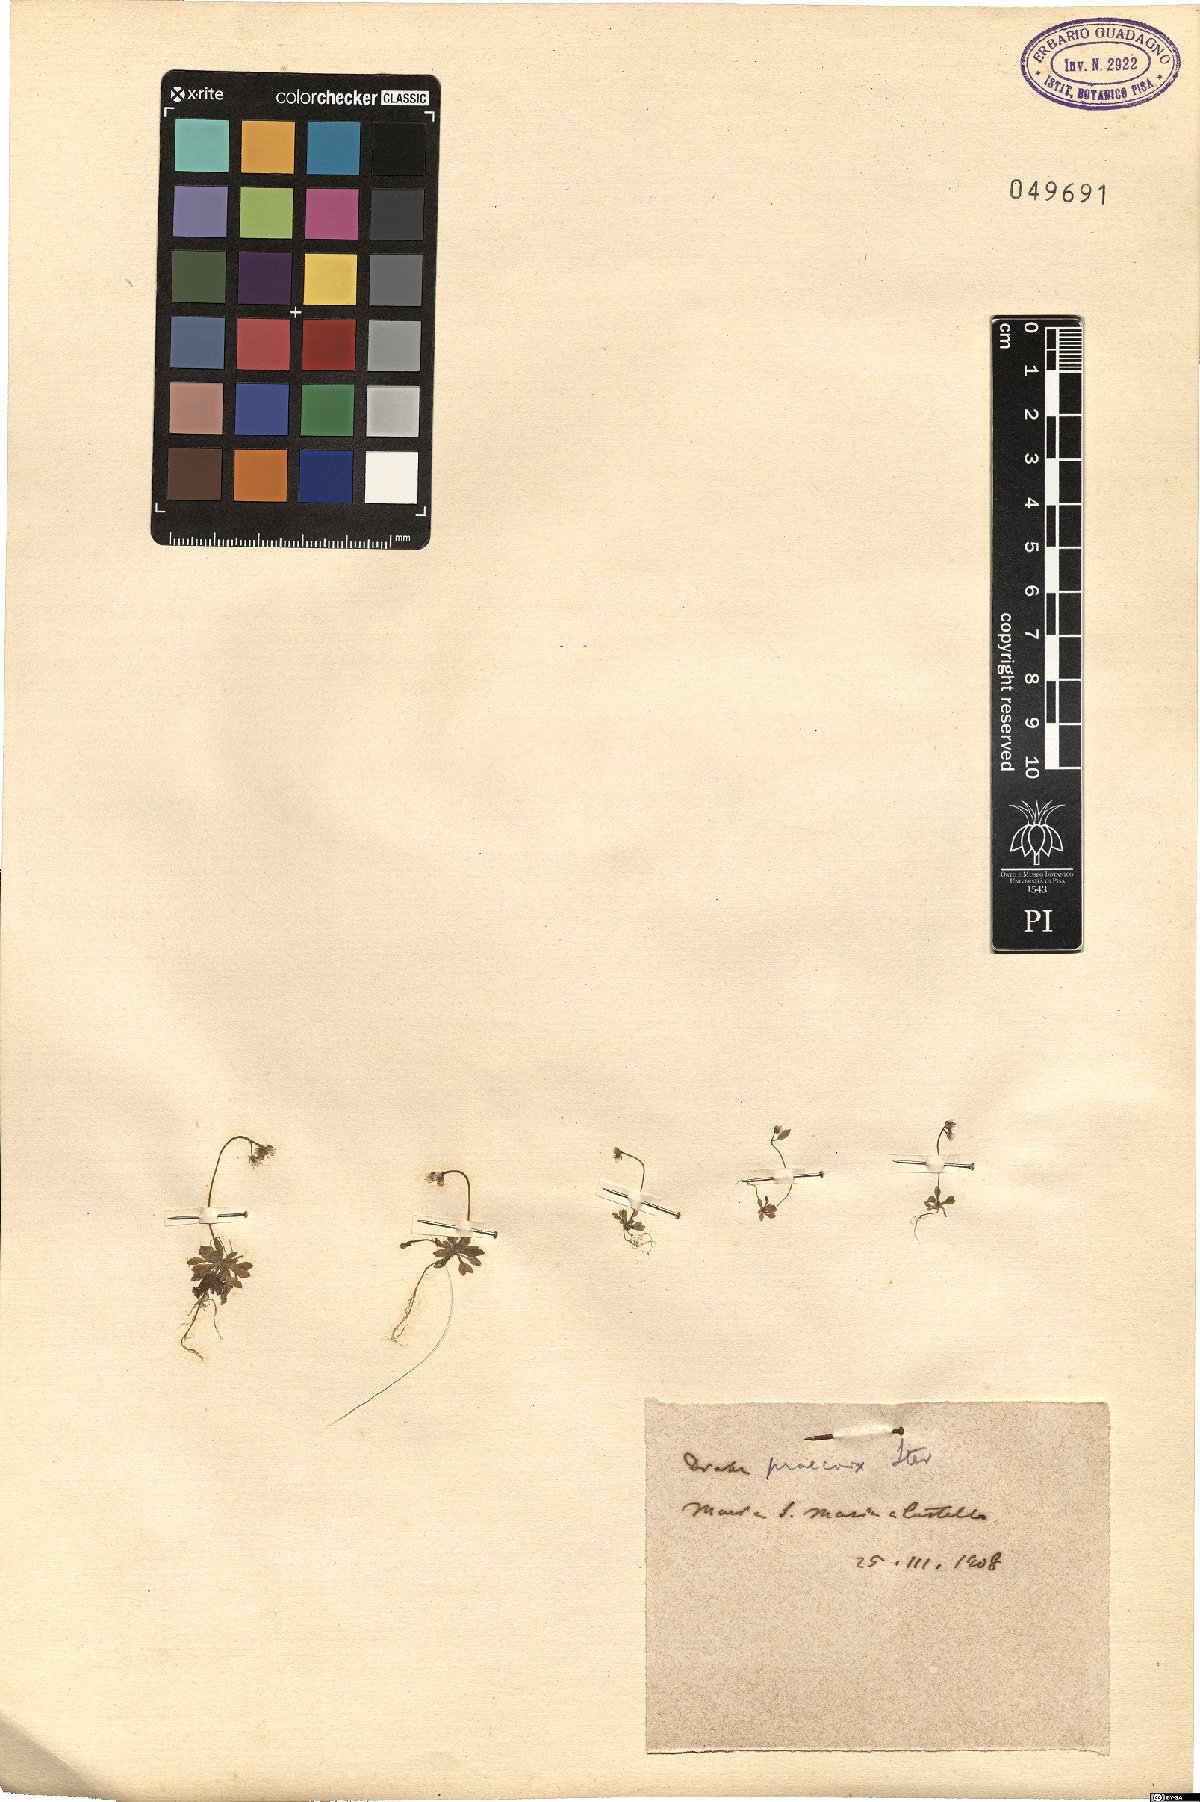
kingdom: Plantae
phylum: Tracheophyta
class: Magnoliopsida
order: Brassicales
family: Brassicaceae
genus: Draba
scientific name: Draba verna
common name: Spring draba
